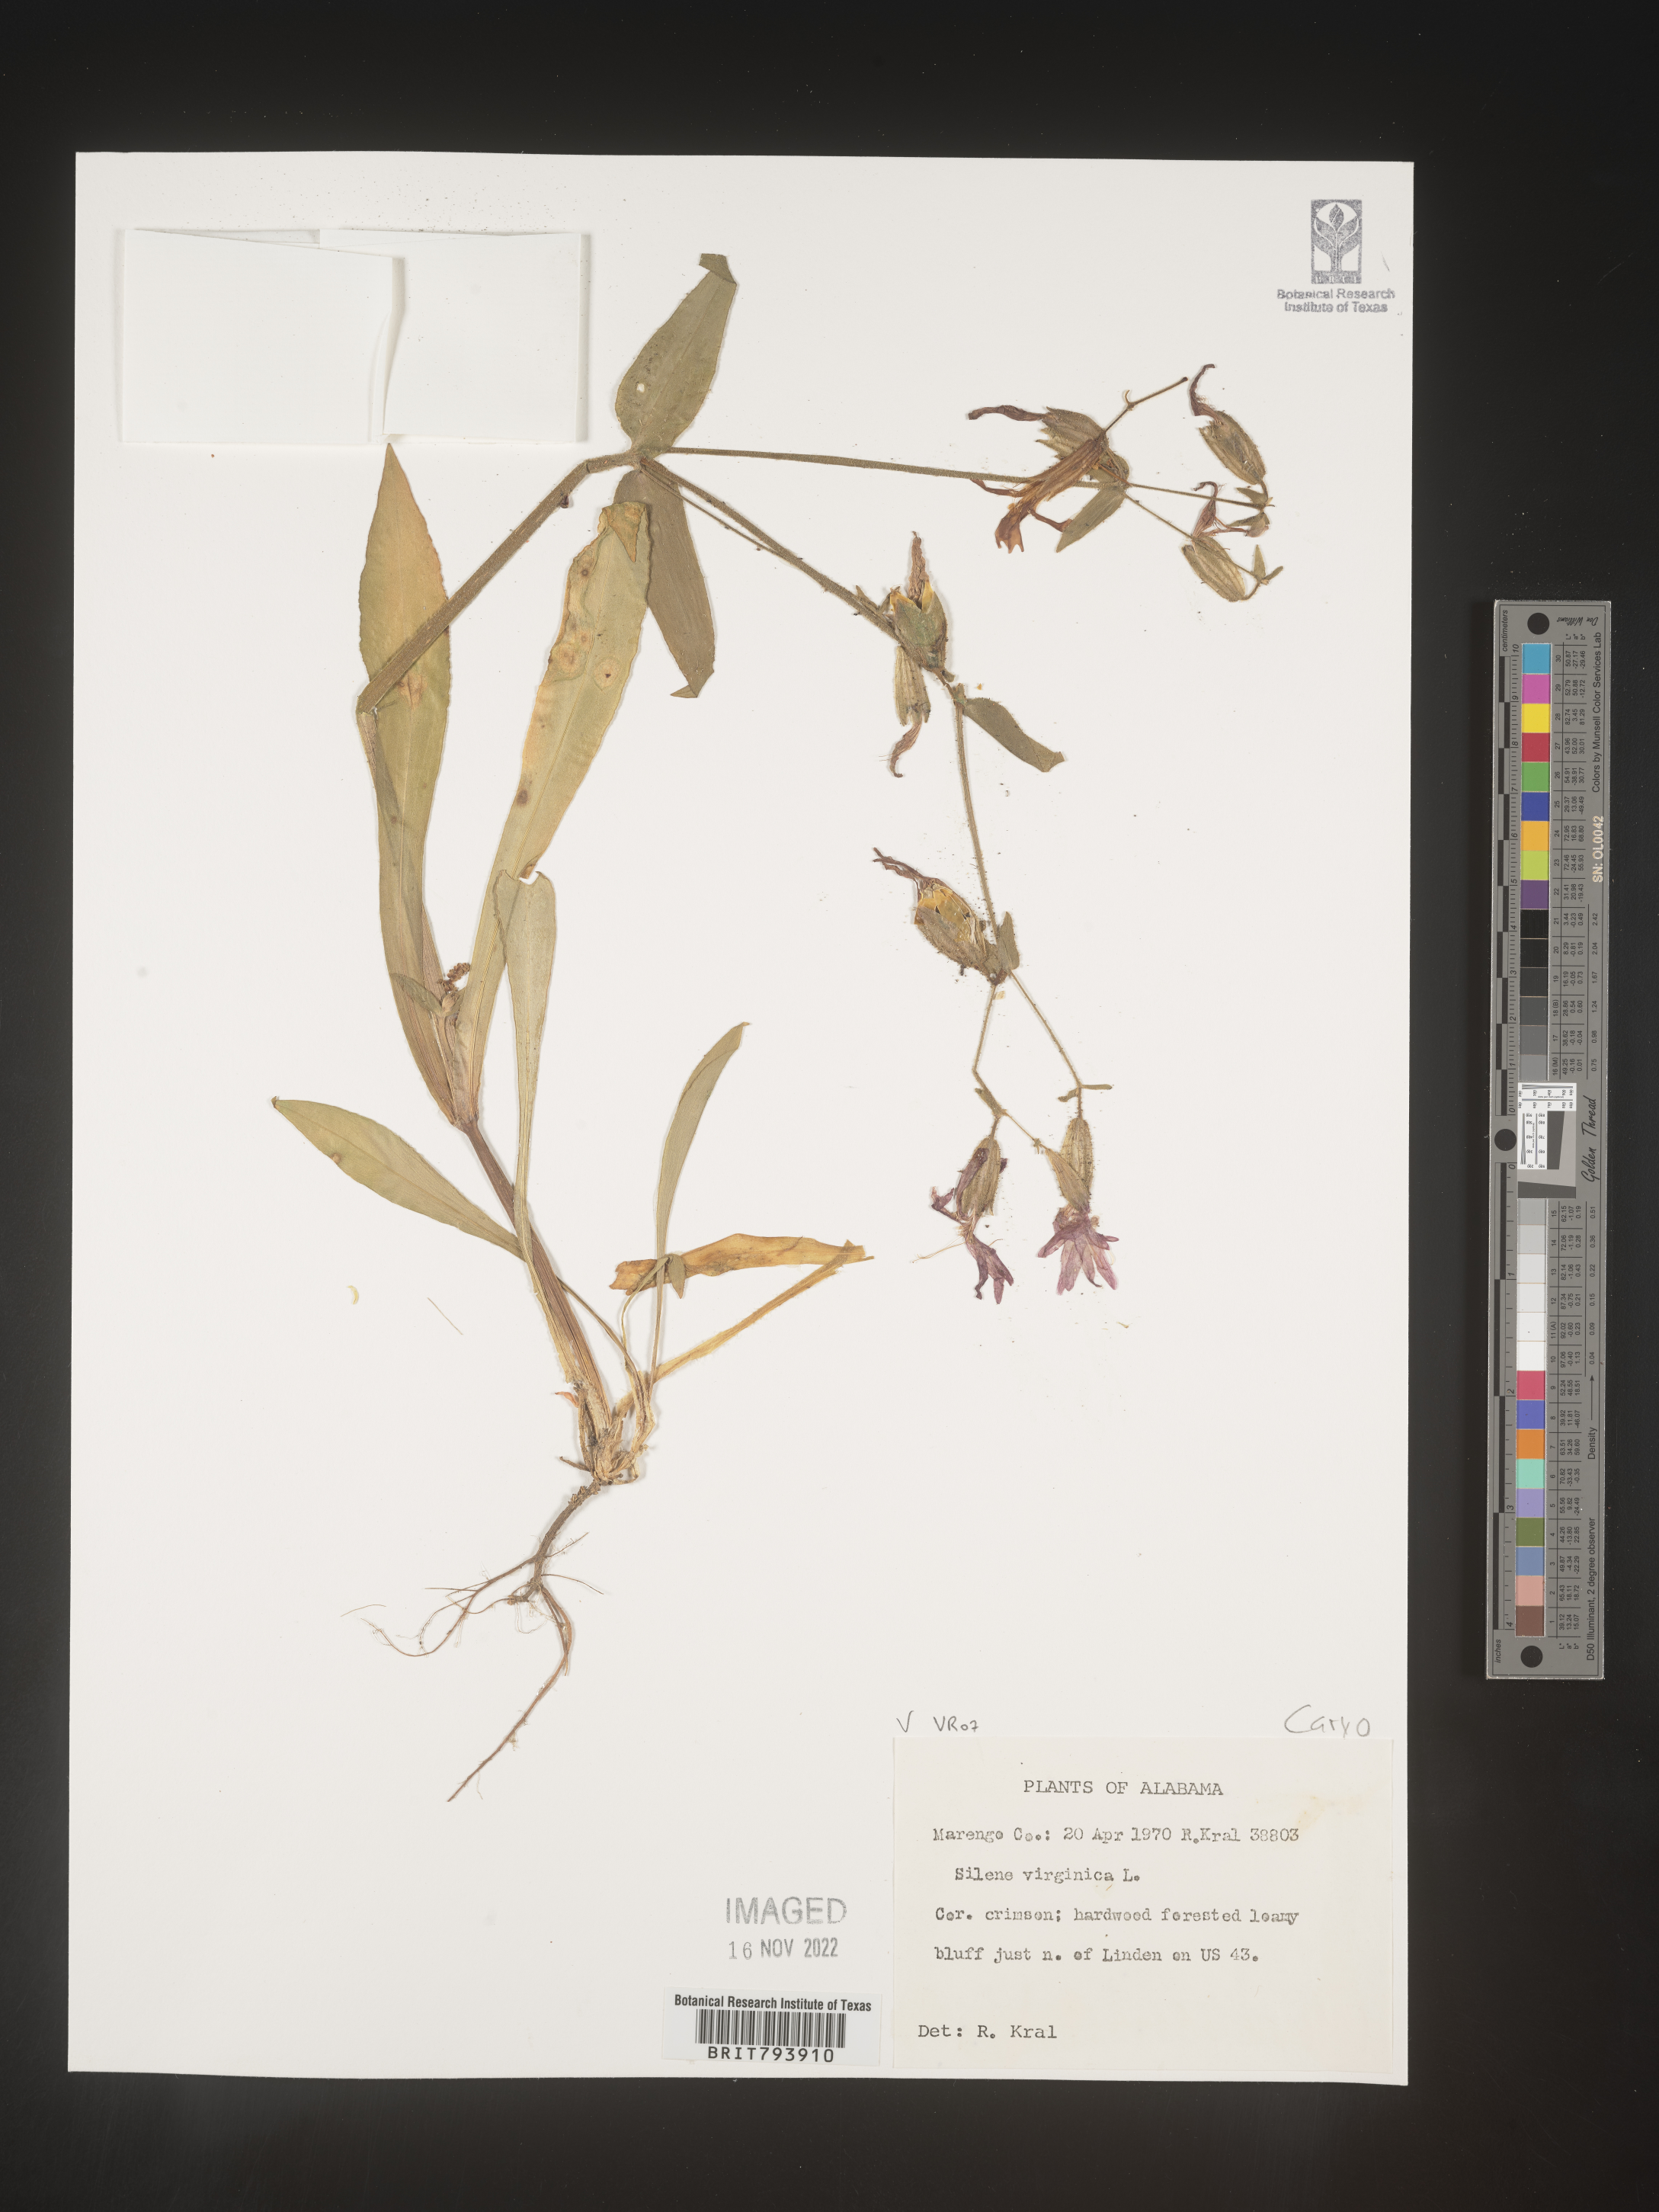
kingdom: Plantae
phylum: Tracheophyta
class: Magnoliopsida
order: Caryophyllales
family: Caryophyllaceae
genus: Silene
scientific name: Silene virginica
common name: Fire-pink
